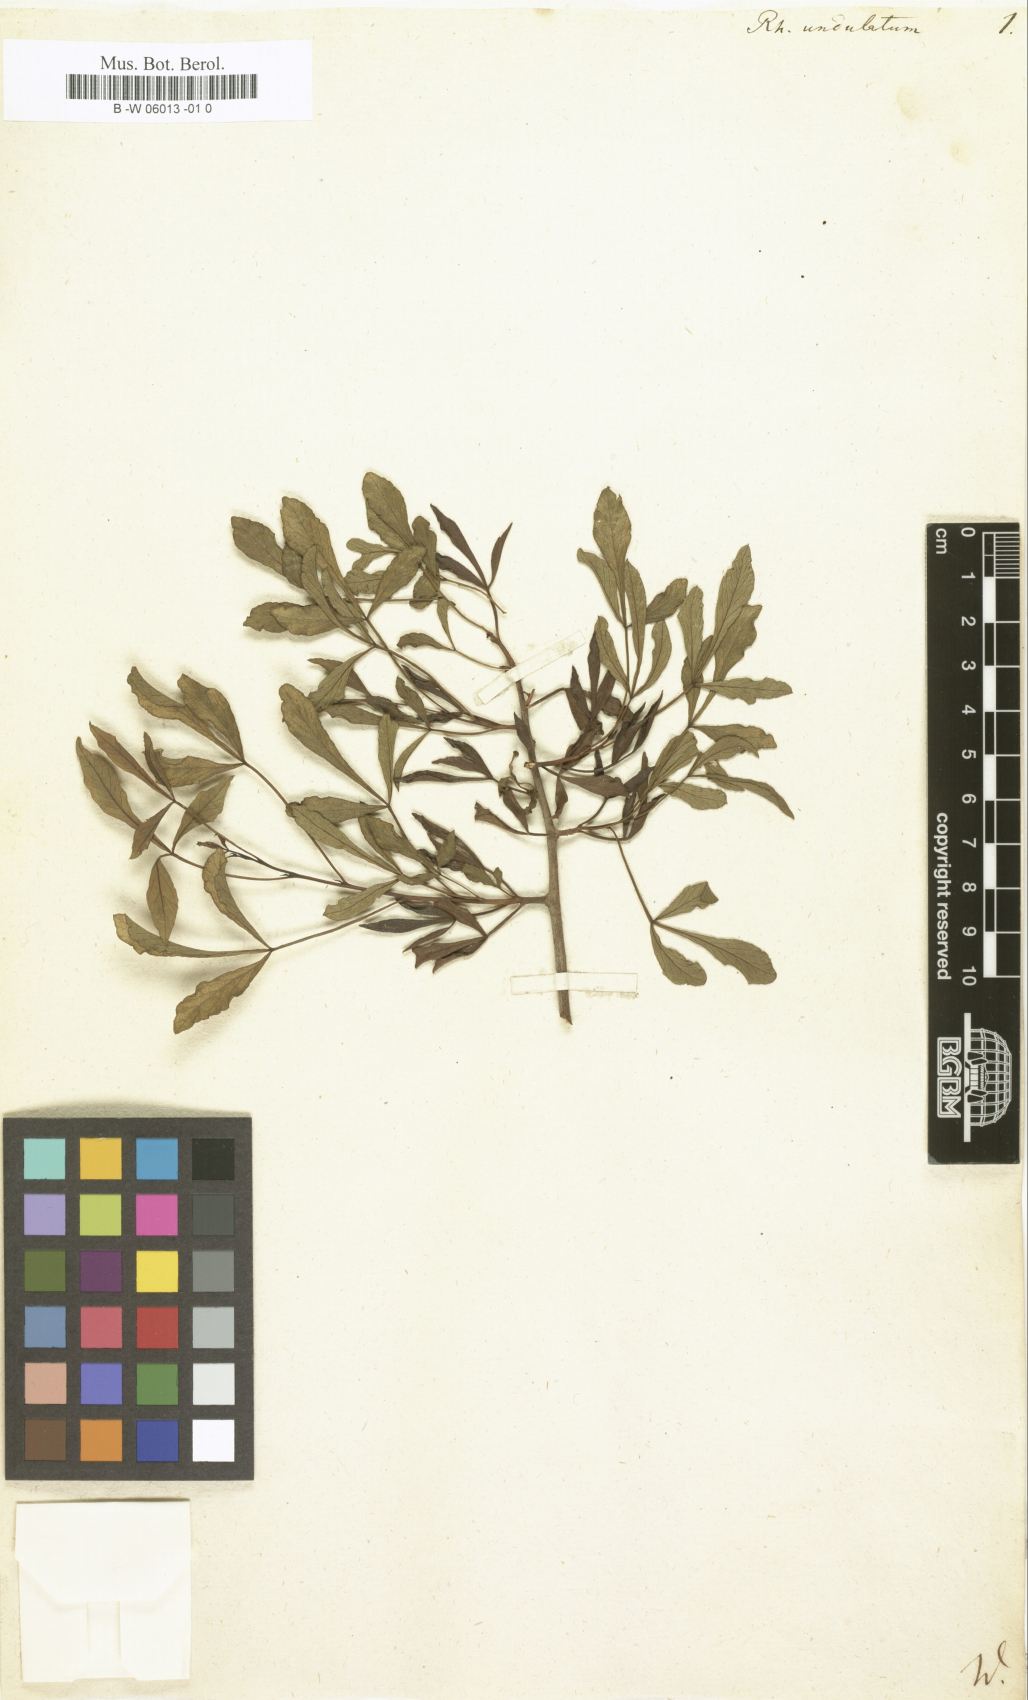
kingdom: Plantae
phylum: Tracheophyta
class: Magnoliopsida
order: Sapindales
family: Anacardiaceae
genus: Searsia
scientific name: Searsia
